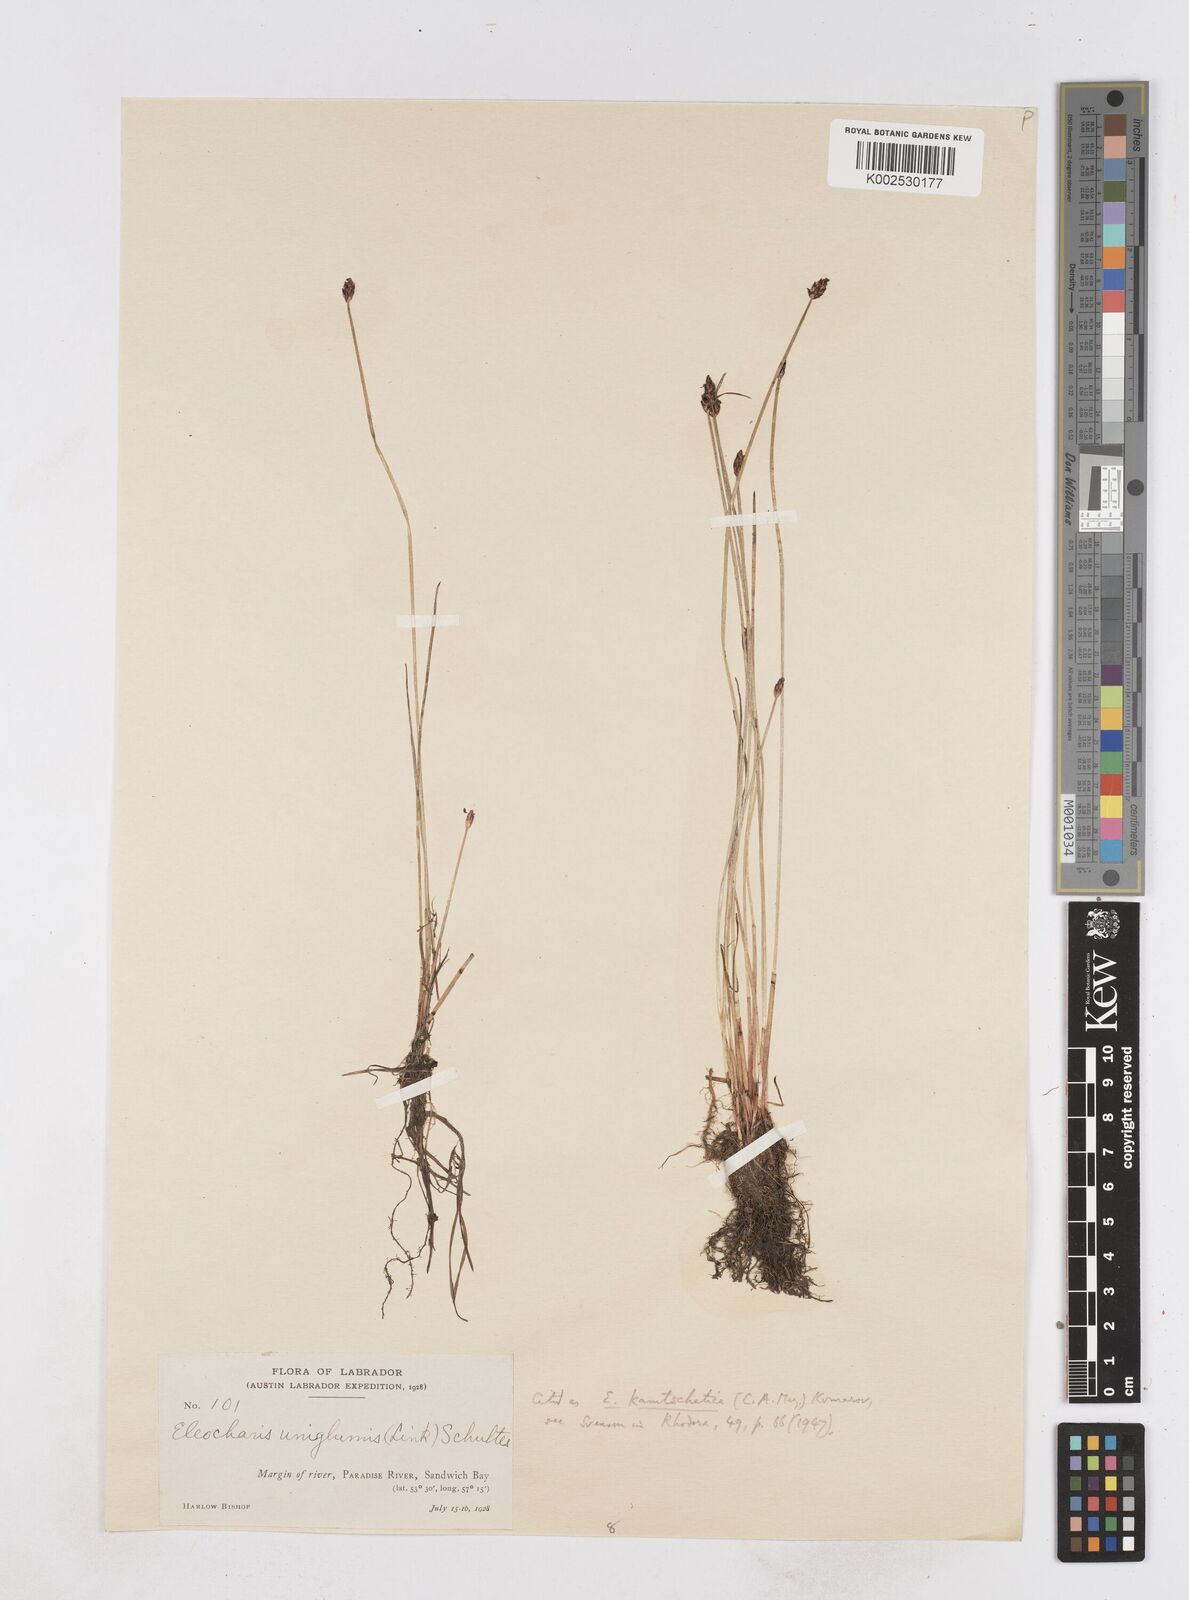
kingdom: Plantae
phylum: Tracheophyta
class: Liliopsida
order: Poales
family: Cyperaceae
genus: Eleocharis
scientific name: Eleocharis kamtschatica
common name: Kamchatka spikerush
